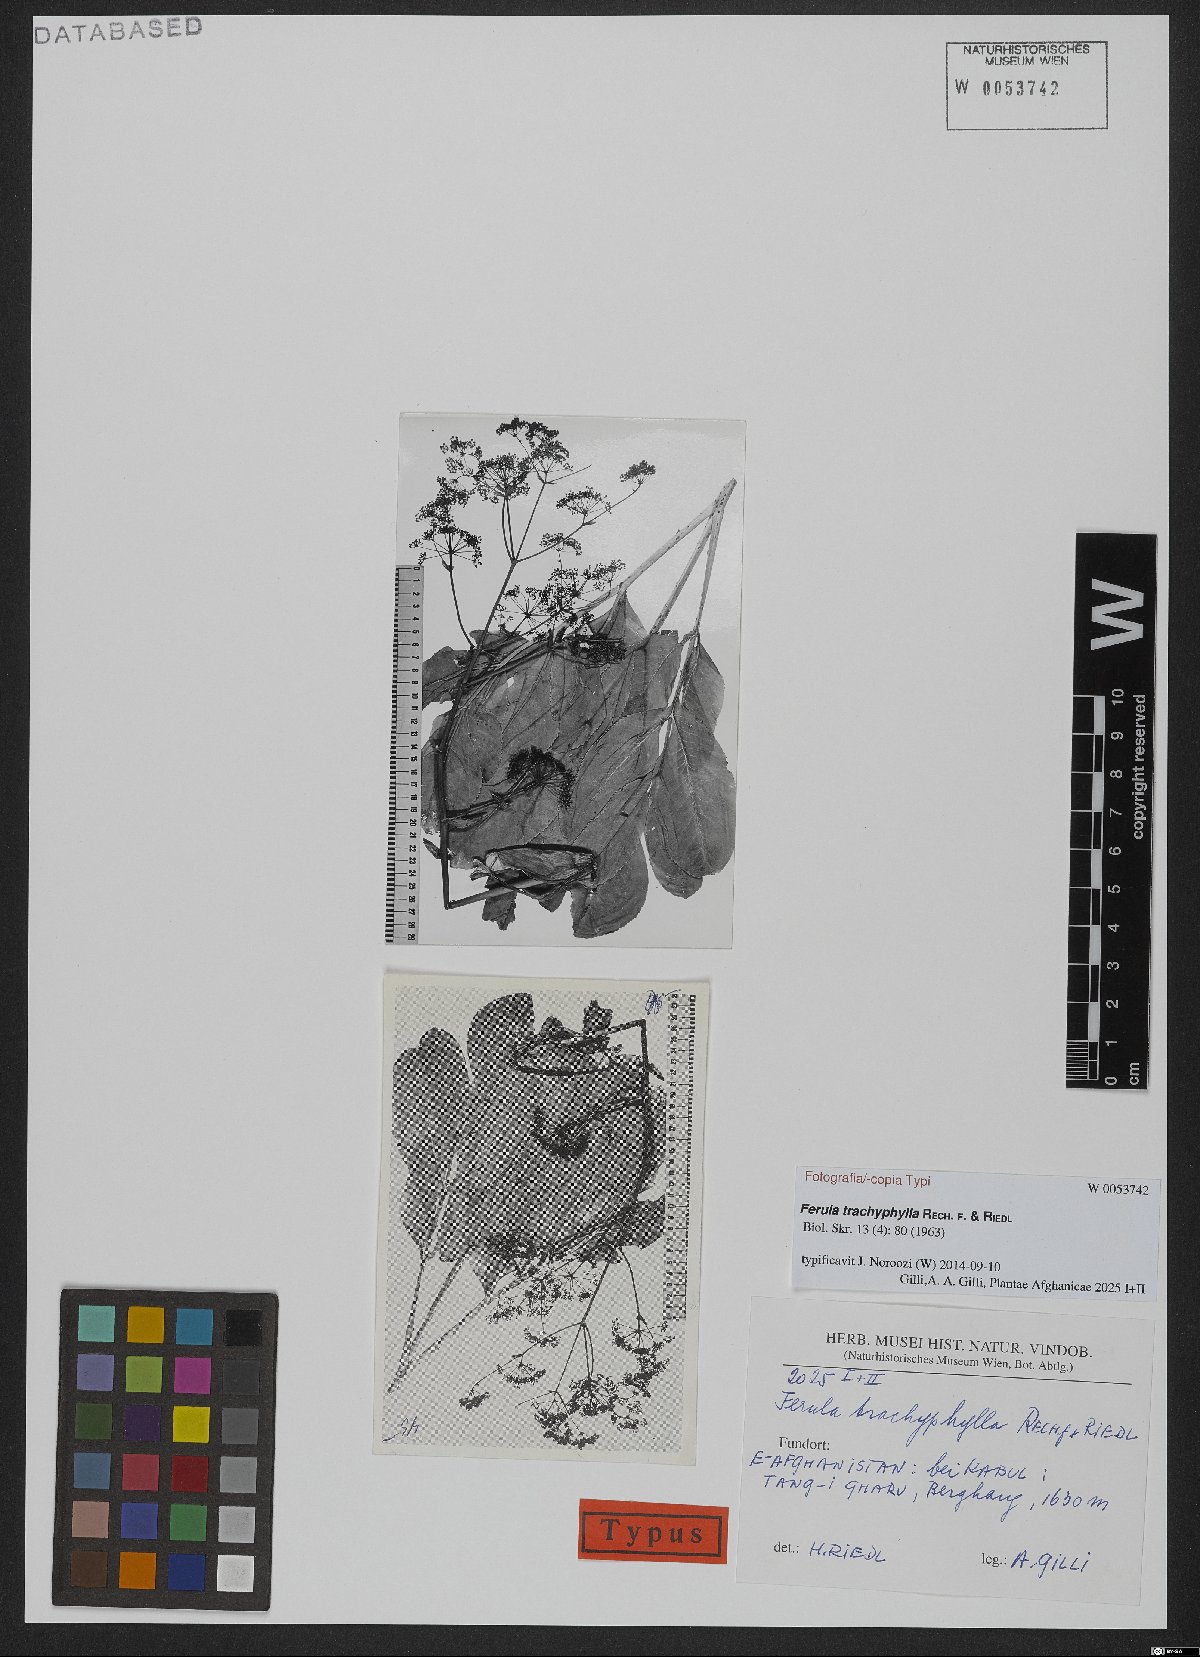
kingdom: Plantae
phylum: Tracheophyta
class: Magnoliopsida
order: Apiales
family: Apiaceae
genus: Ferula
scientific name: Ferula trachyphylla
